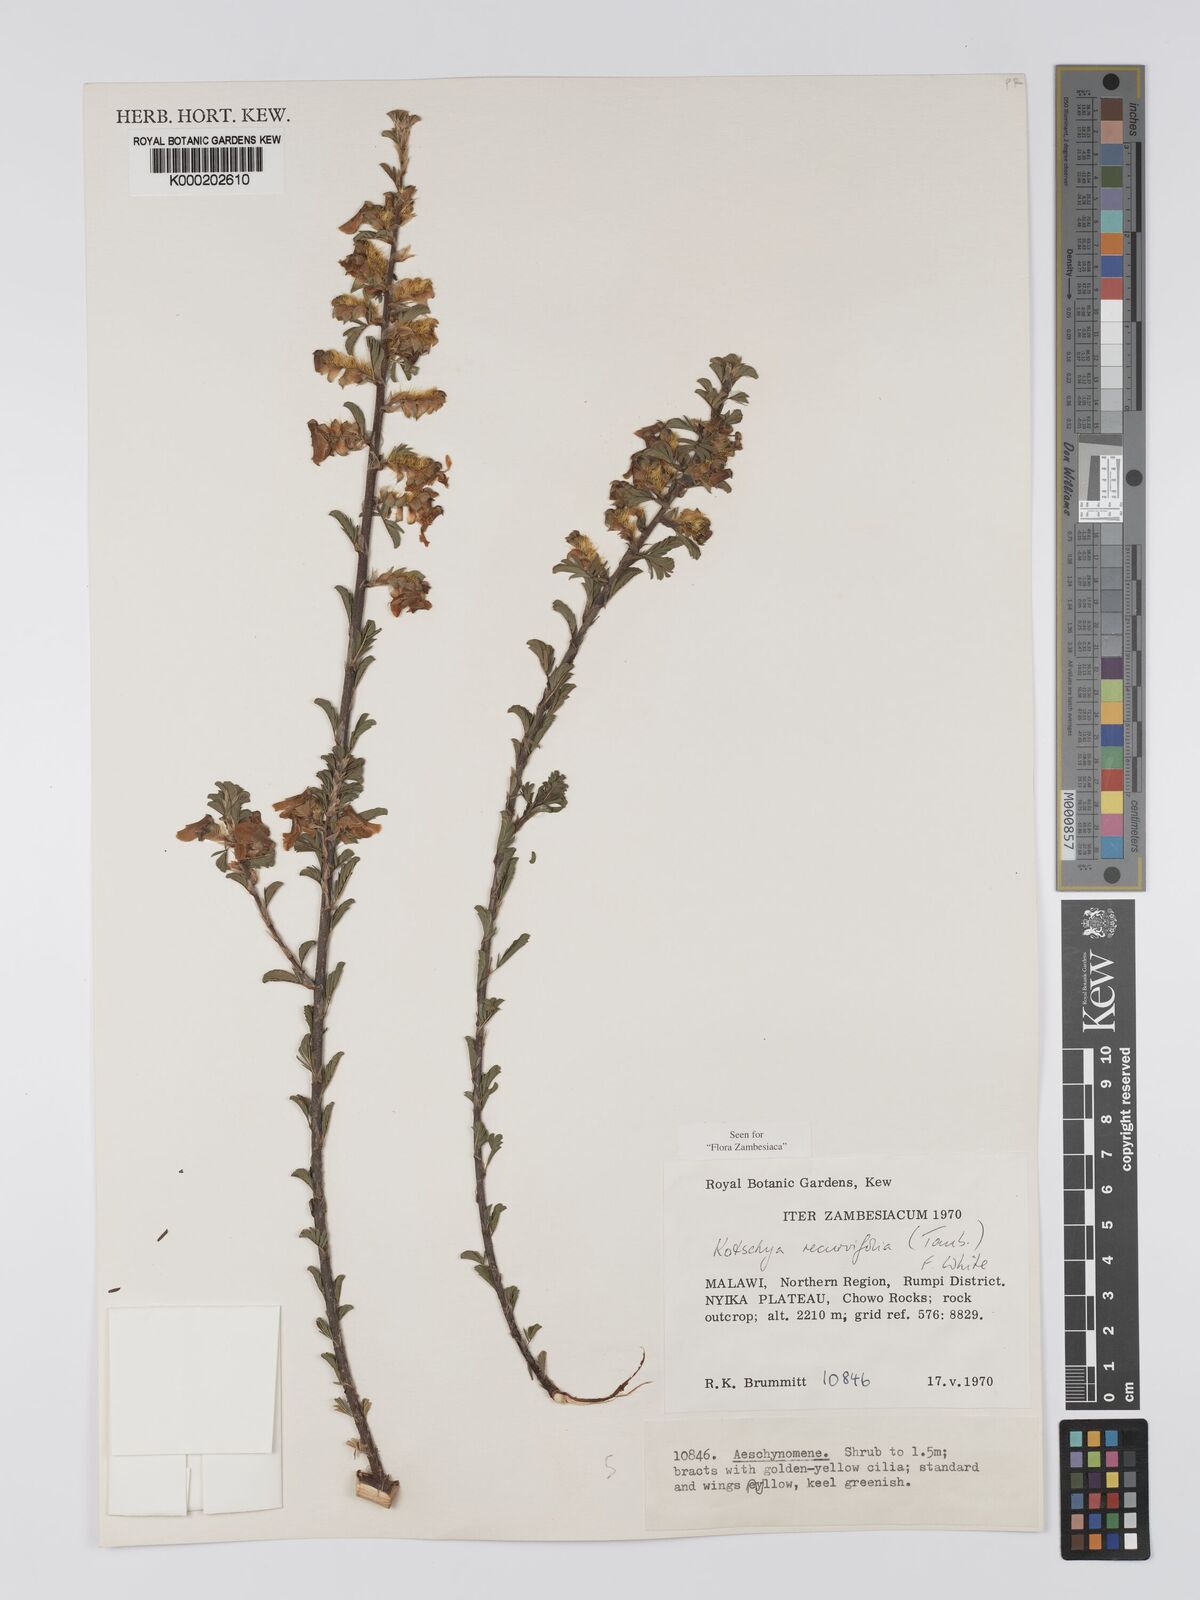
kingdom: Plantae
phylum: Tracheophyta
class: Magnoliopsida
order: Fabales
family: Fabaceae
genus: Kotschya
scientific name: Kotschya recurvifolia
